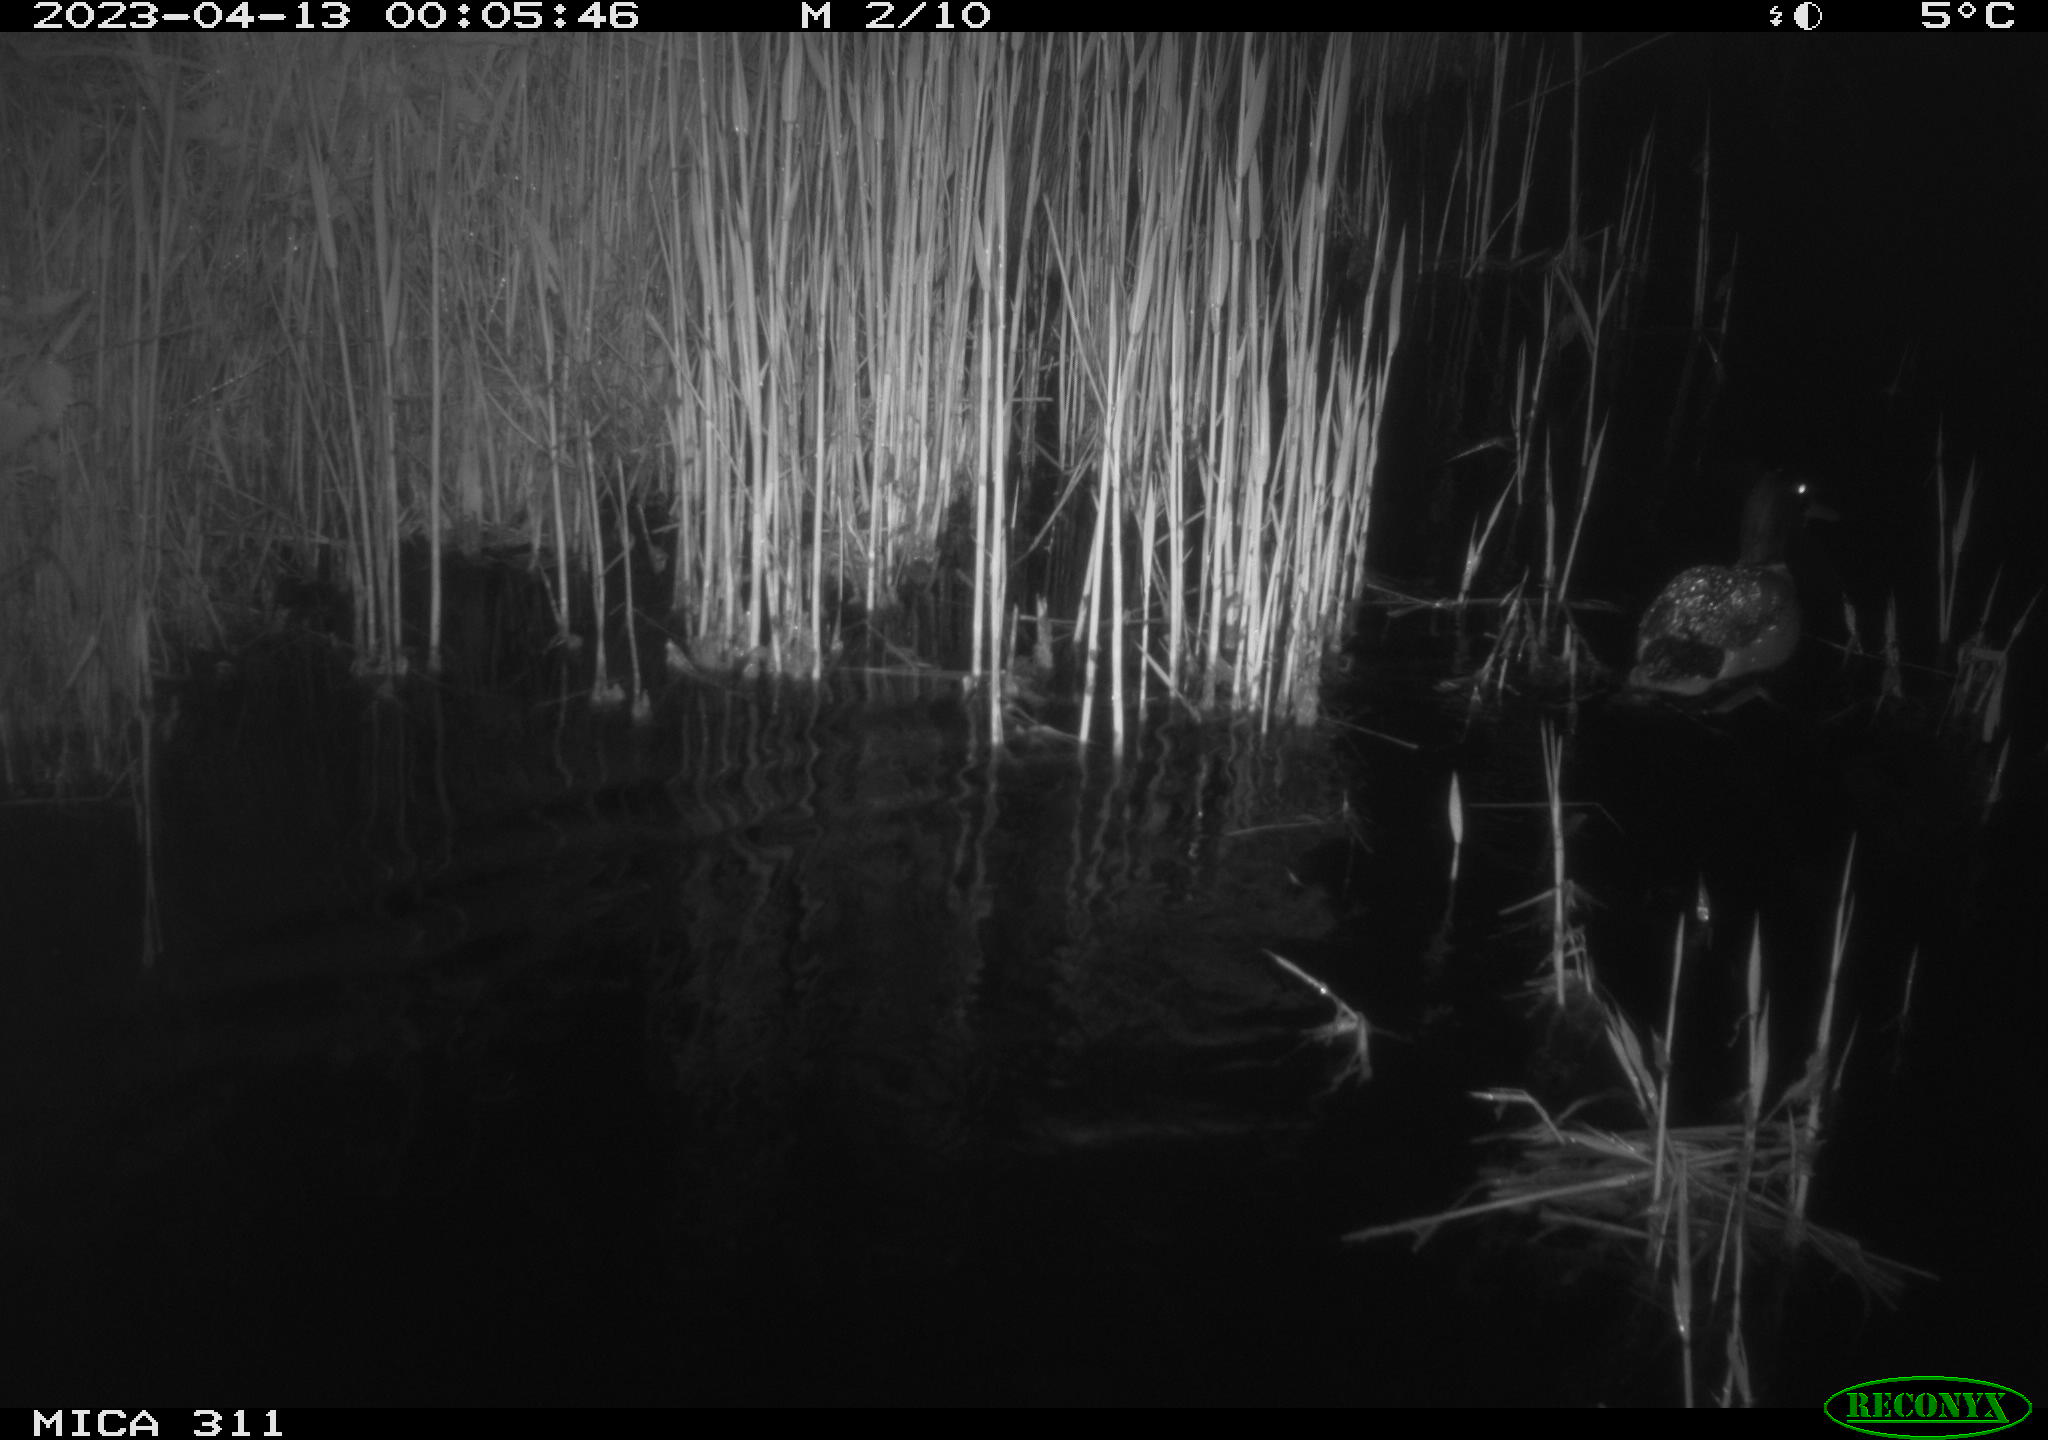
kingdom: Animalia
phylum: Chordata
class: Aves
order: Anseriformes
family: Anatidae
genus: Anas
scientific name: Anas
